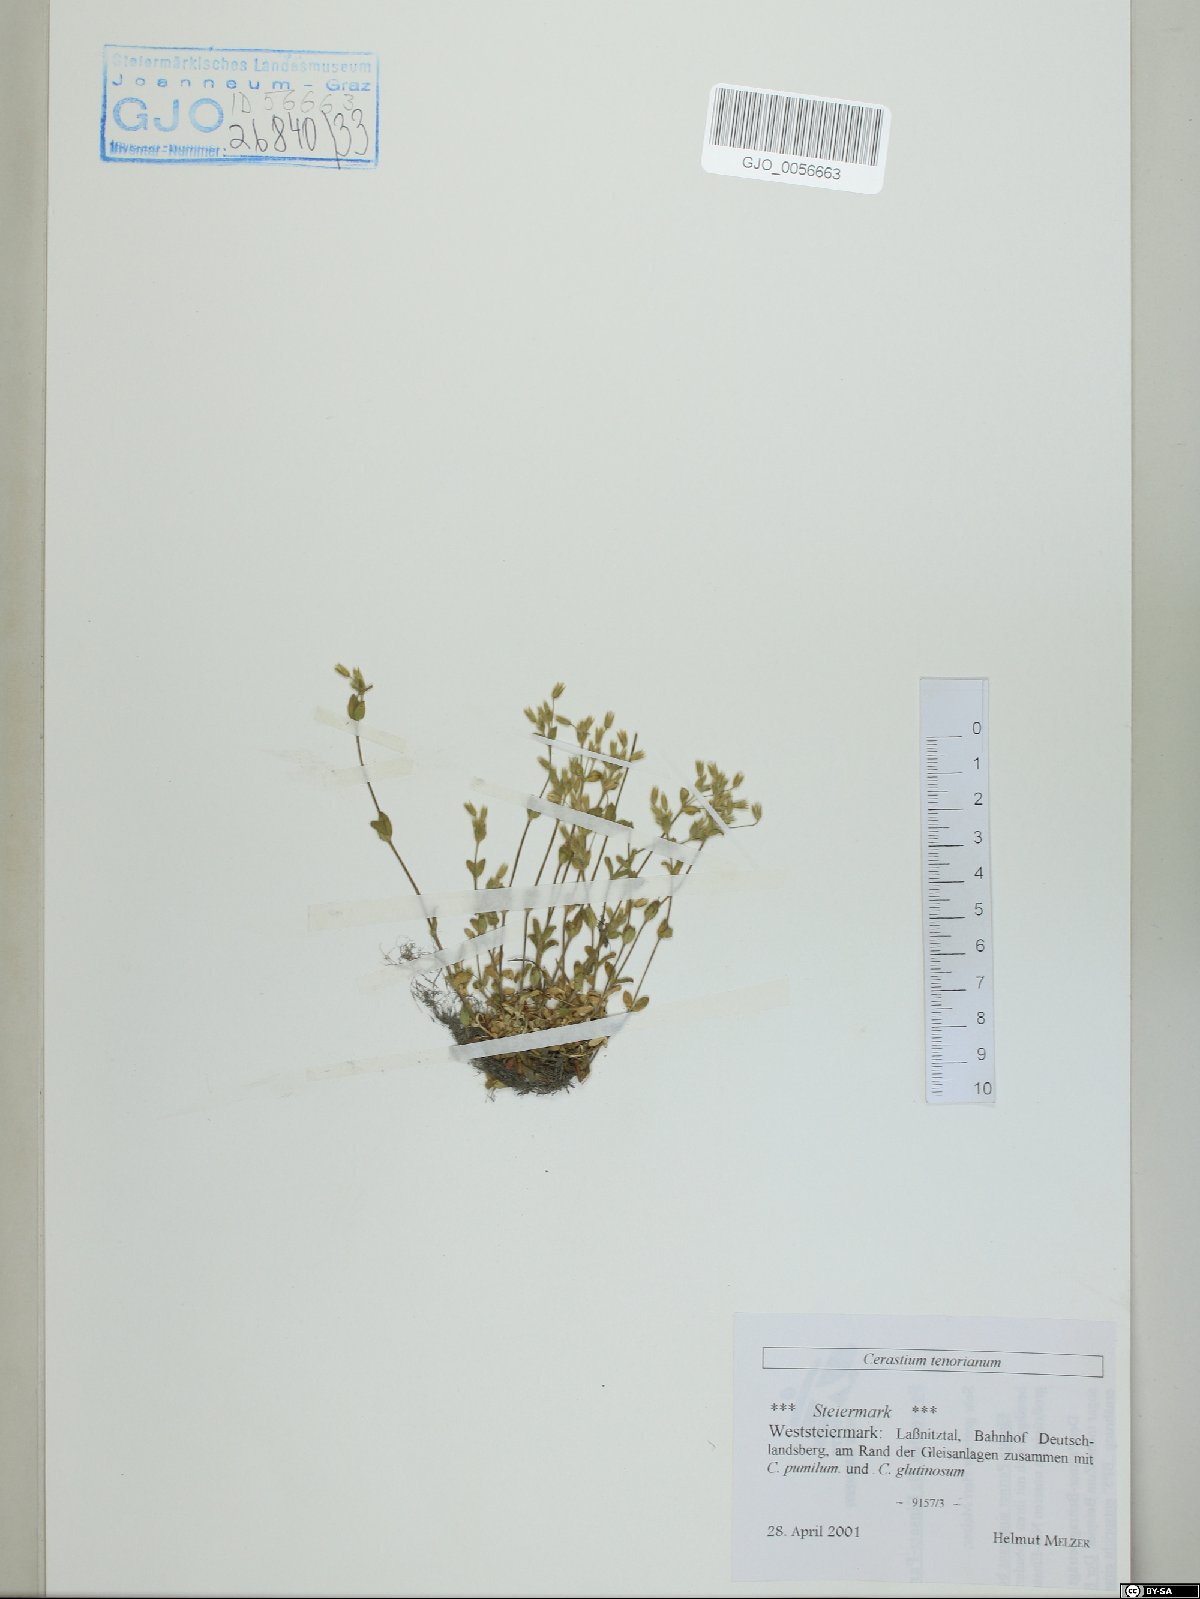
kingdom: Plantae
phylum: Tracheophyta
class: Magnoliopsida
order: Caryophyllales
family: Caryophyllaceae
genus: Cerastium
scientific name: Cerastium tenoreanum
